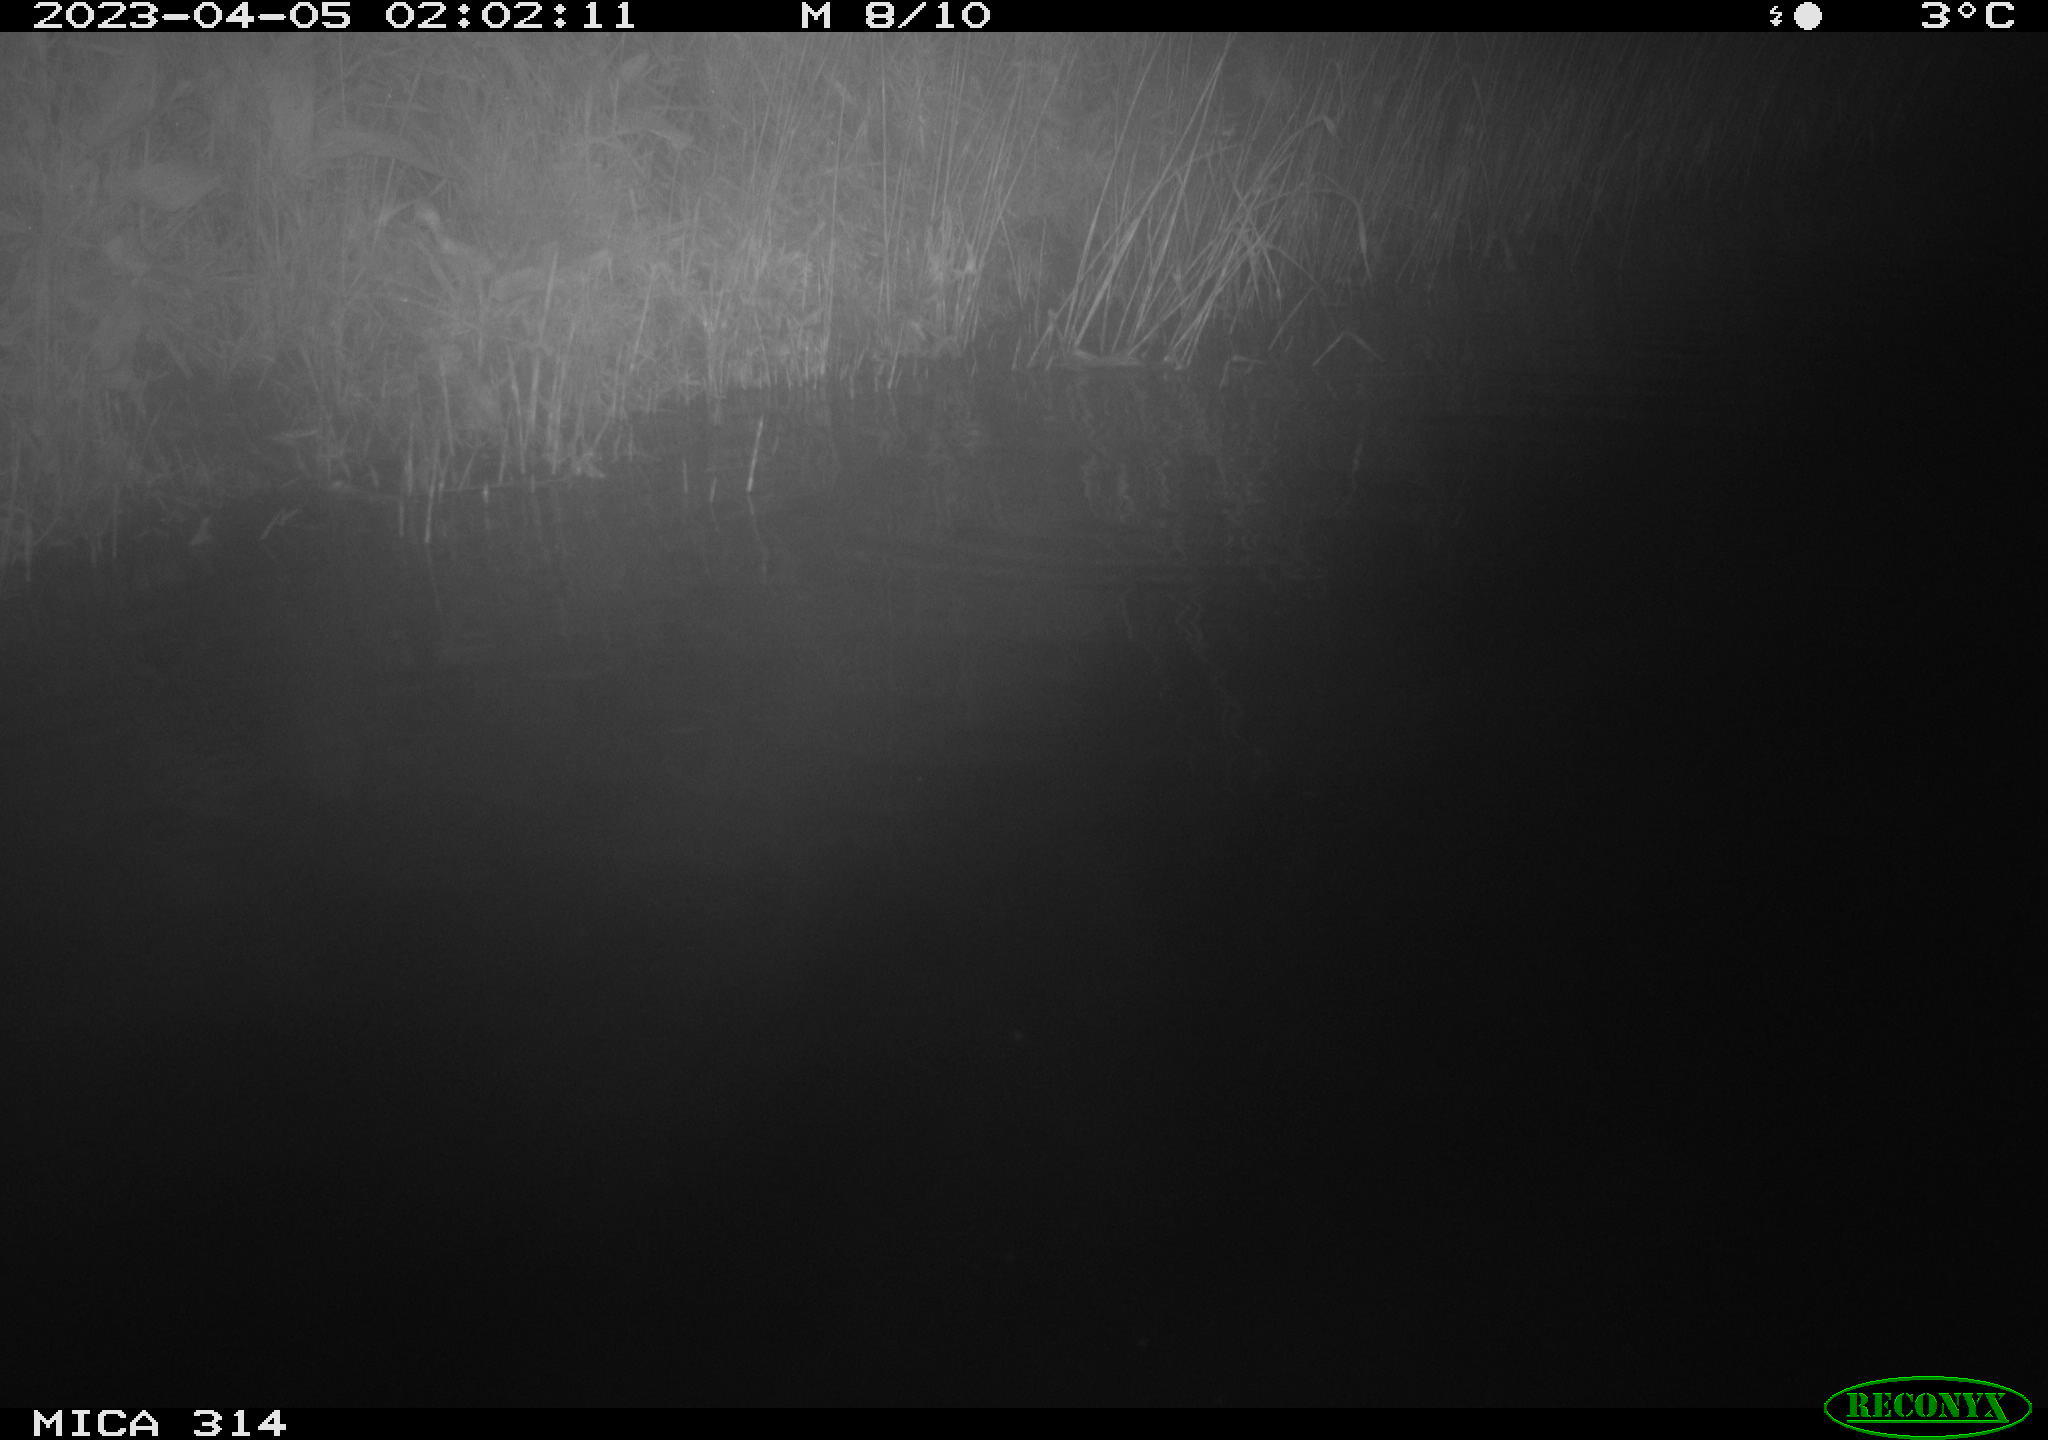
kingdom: Animalia
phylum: Chordata
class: Aves
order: Anseriformes
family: Anatidae
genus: Anas
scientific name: Anas
